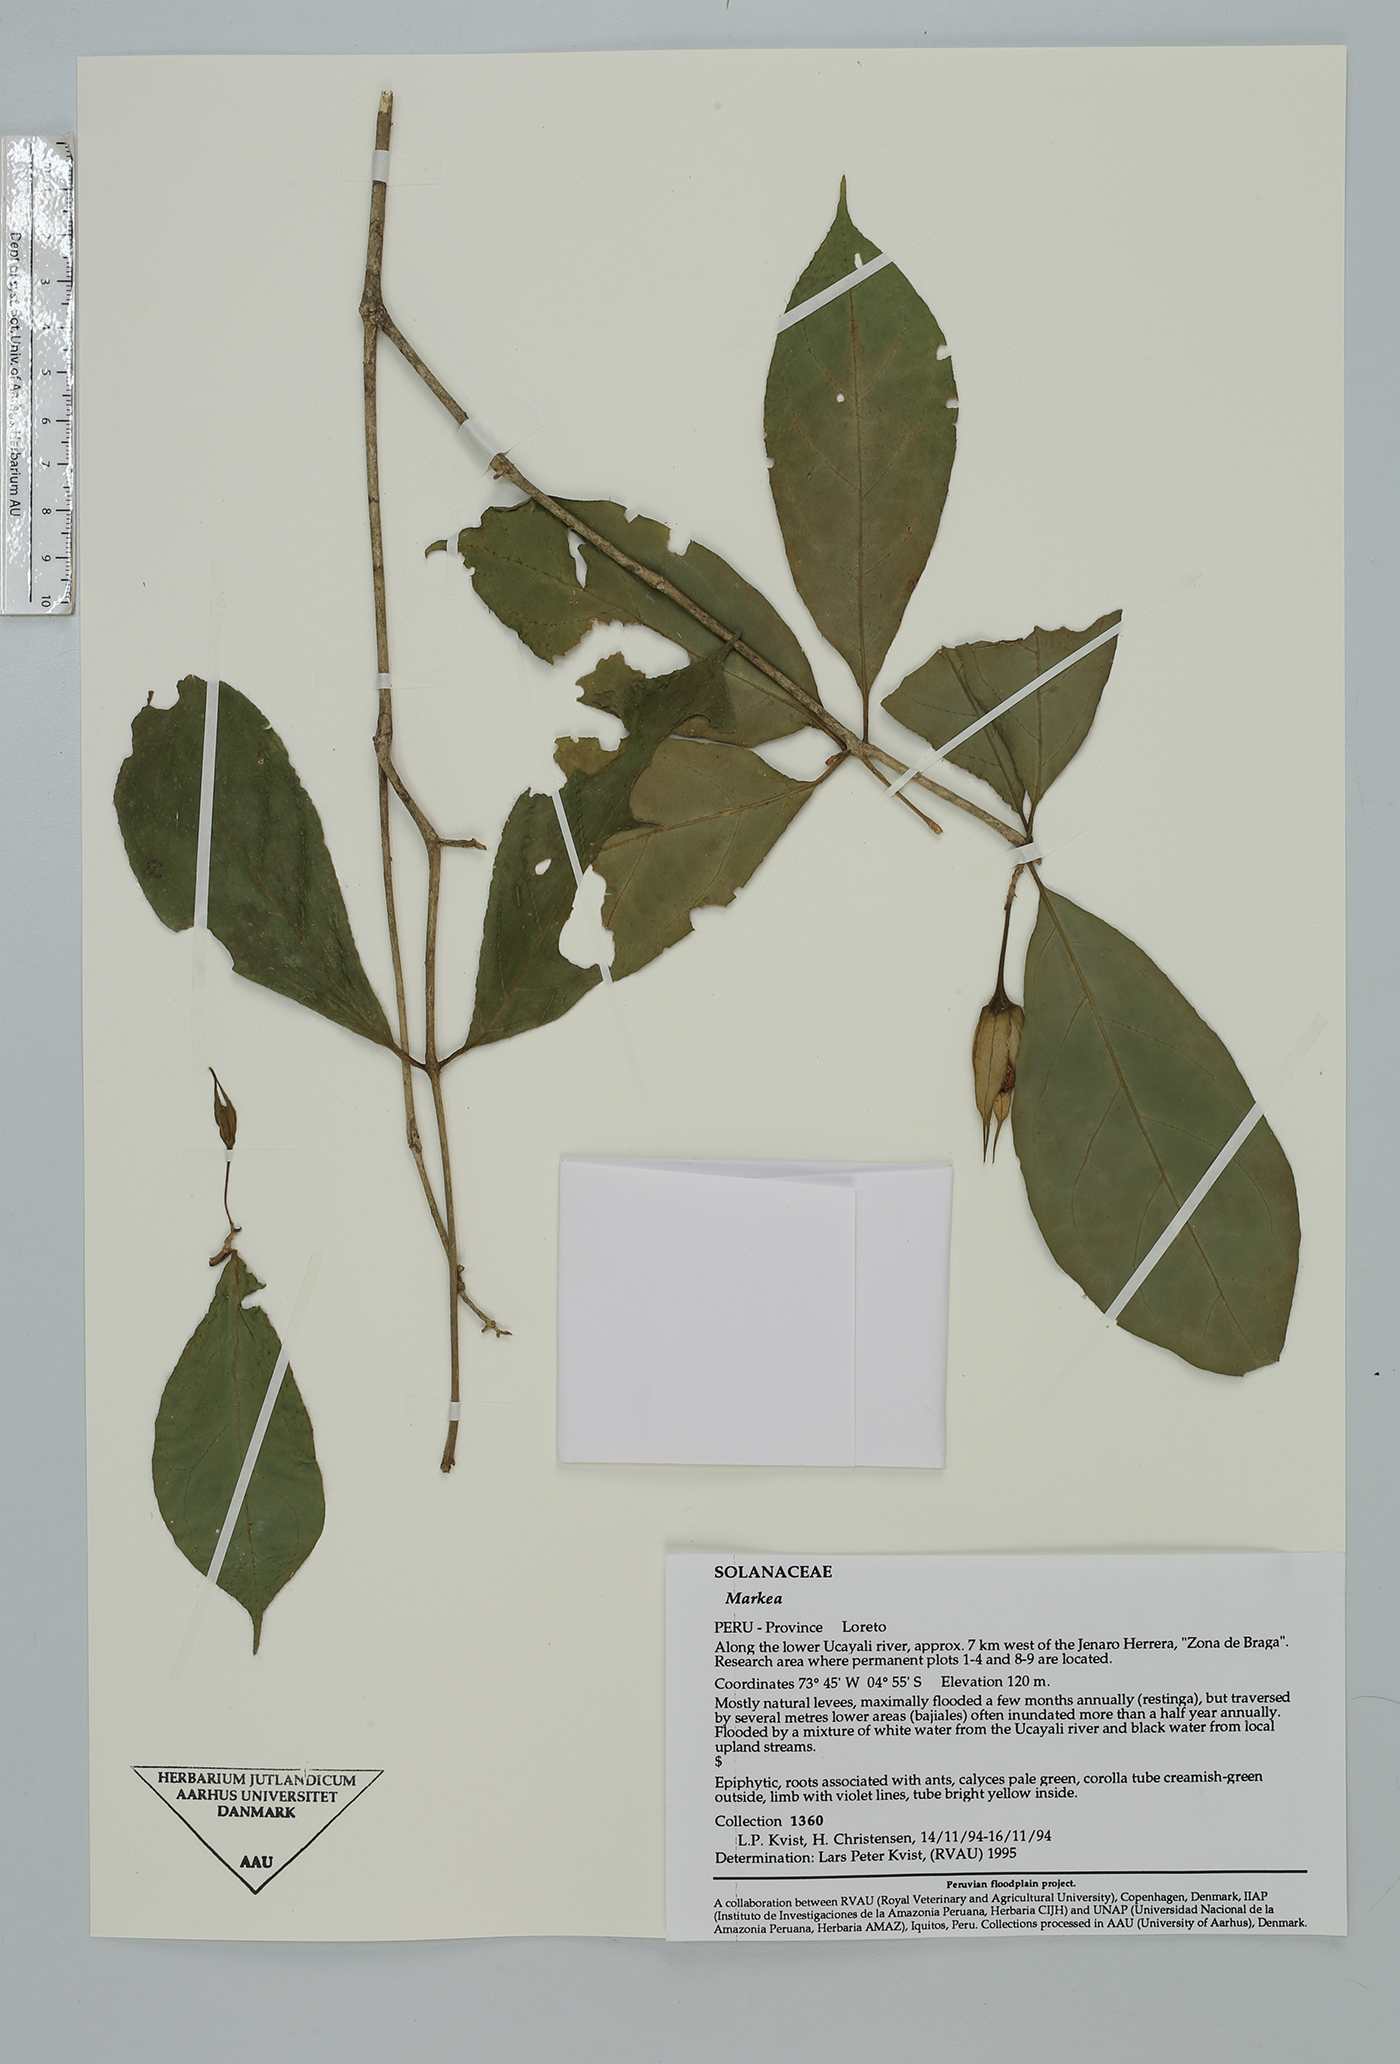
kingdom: Plantae
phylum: Tracheophyta
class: Magnoliopsida
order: Solanales
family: Solanaceae
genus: Markea
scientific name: Markea formicarum
